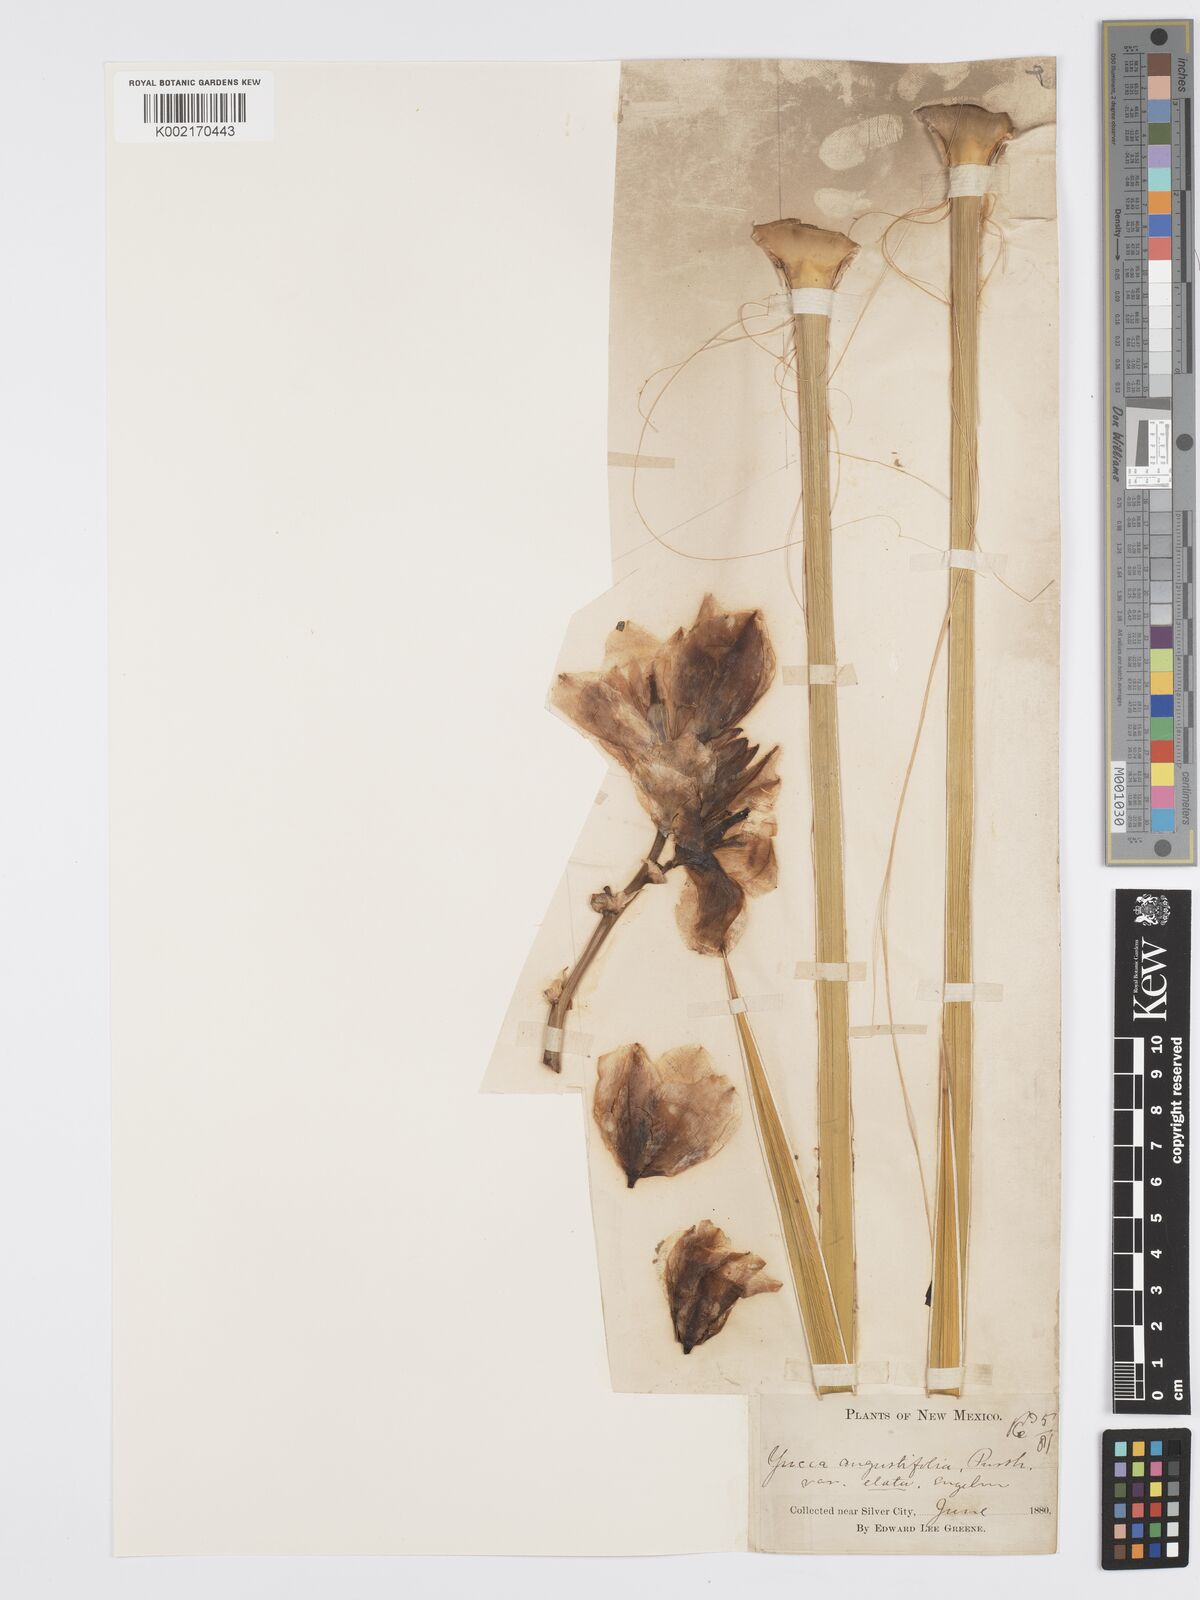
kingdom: Plantae
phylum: Tracheophyta
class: Liliopsida
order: Asparagales
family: Asparagaceae
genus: Yucca
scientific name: Yucca elata
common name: Palmella
